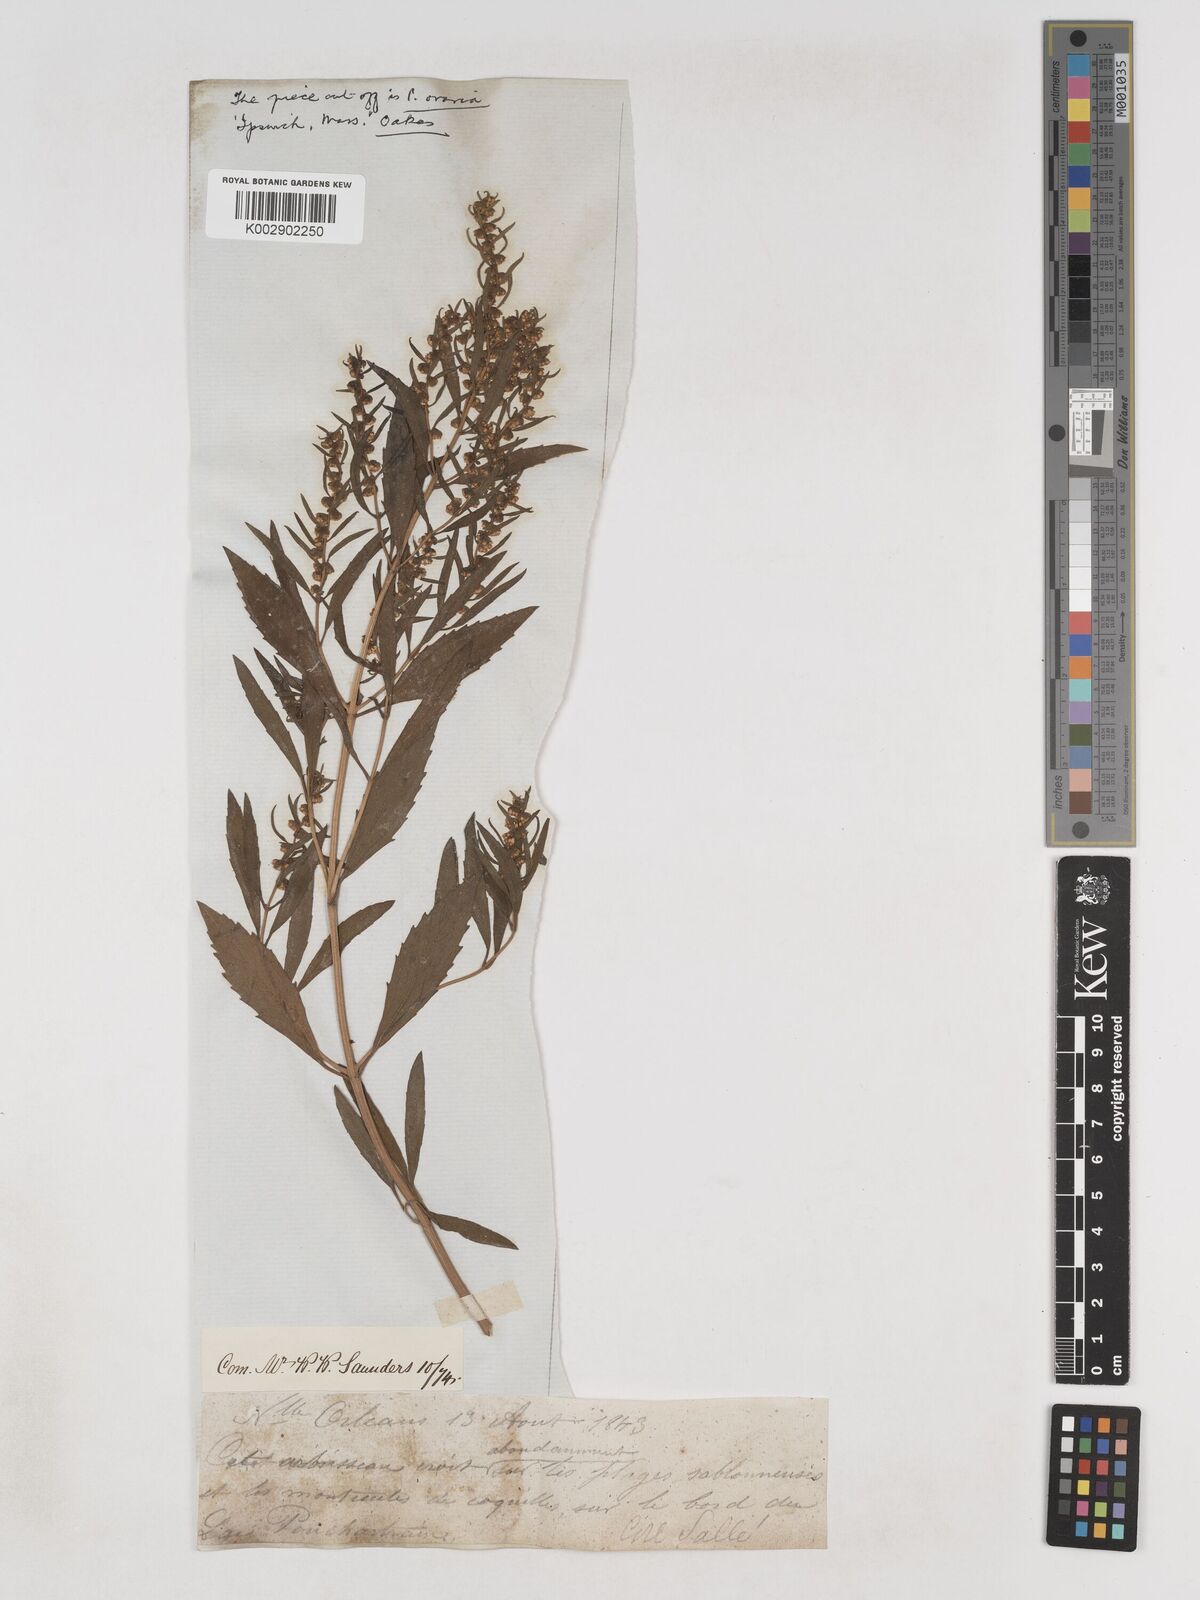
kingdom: Plantae
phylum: Tracheophyta
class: Magnoliopsida
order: Asterales
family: Asteraceae
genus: Iva
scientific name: Iva frutescens
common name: Big-leaved marsh-elder
